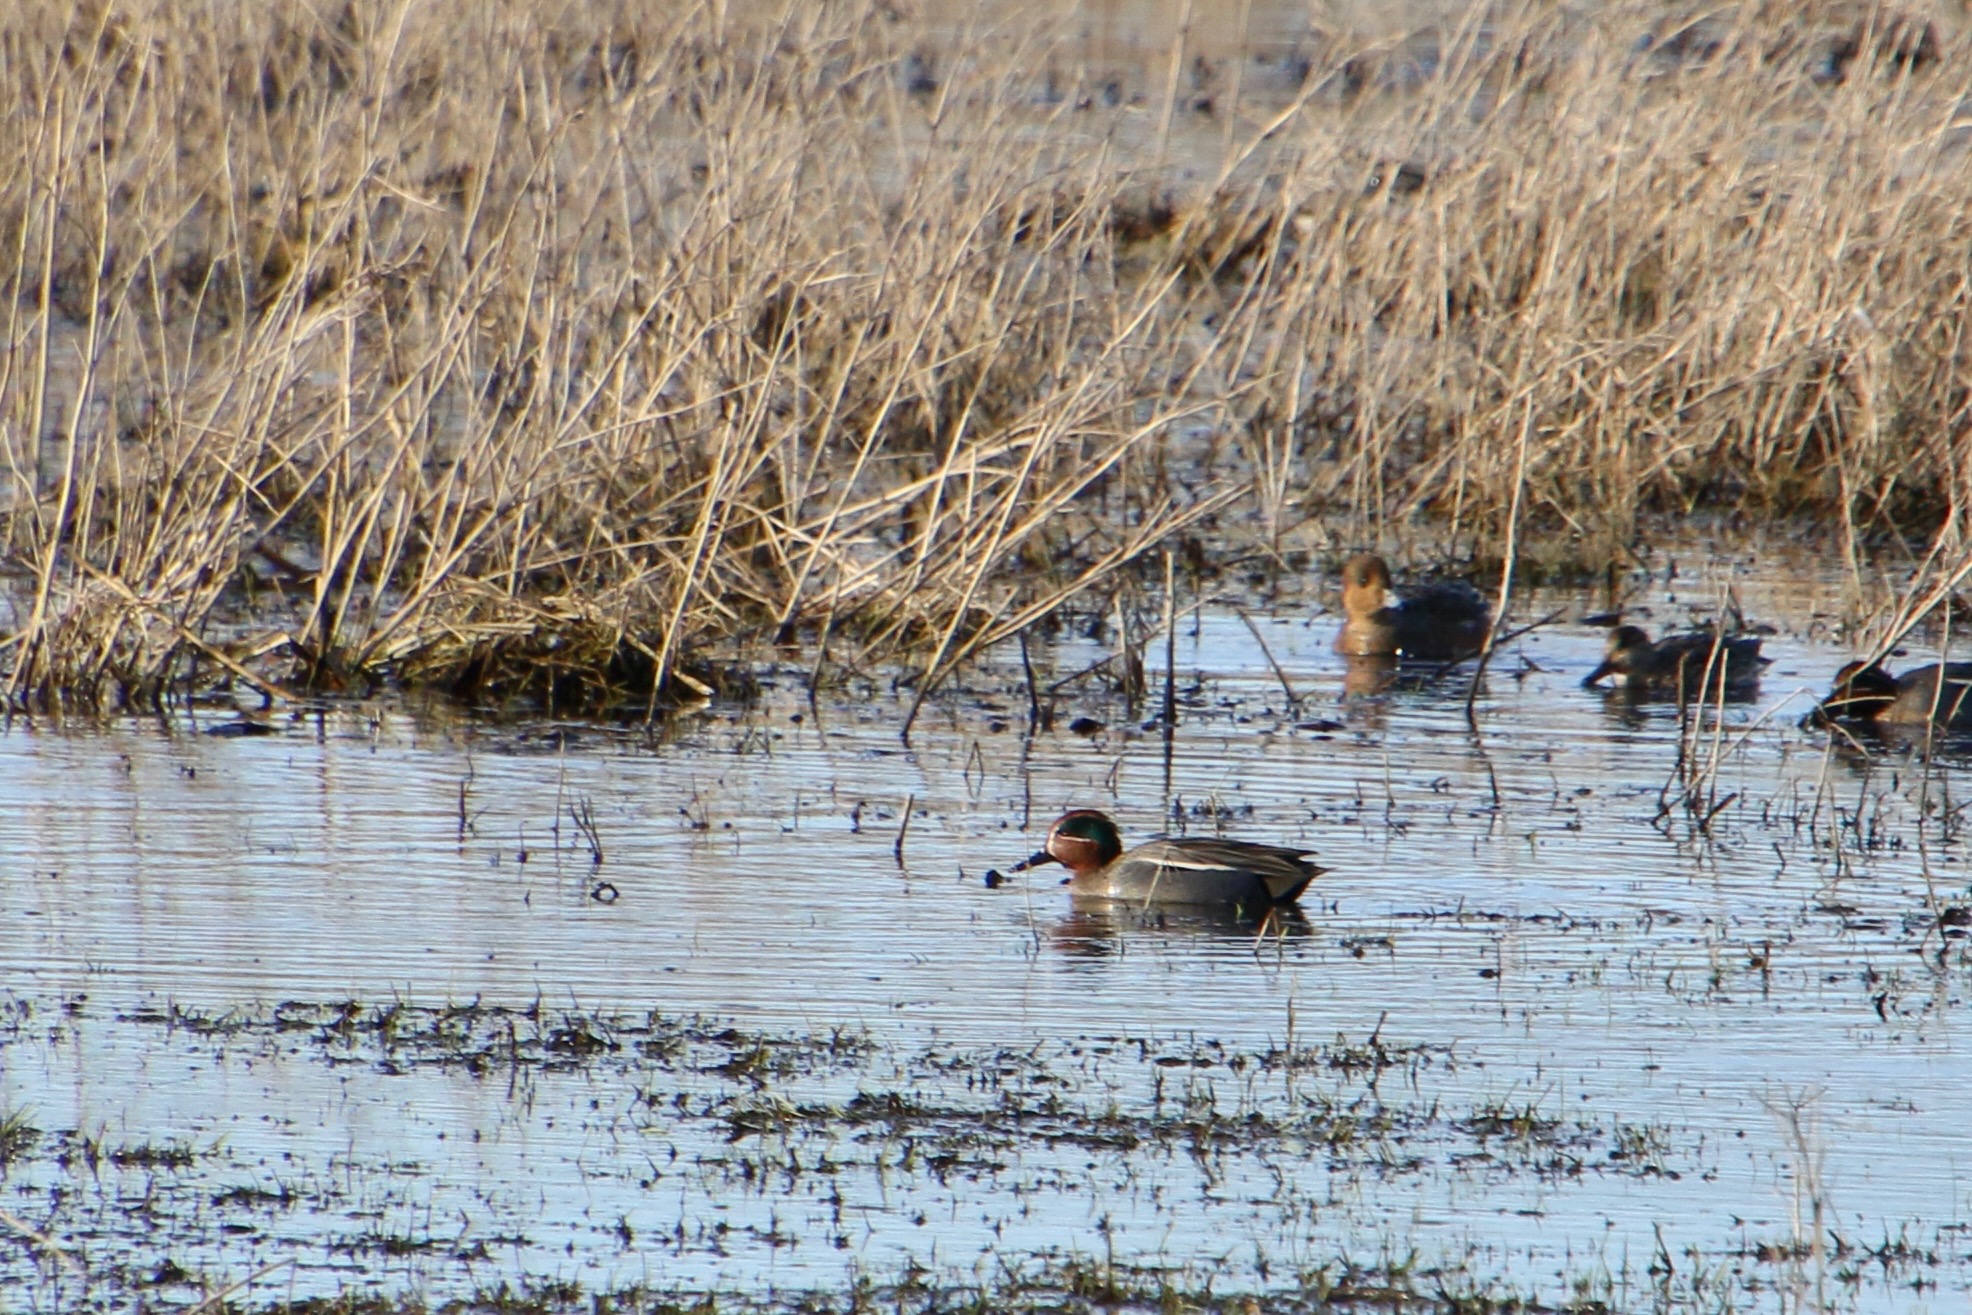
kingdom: Animalia
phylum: Chordata
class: Aves
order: Anseriformes
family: Anatidae
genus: Anas
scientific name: Anas crecca
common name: Krikand
